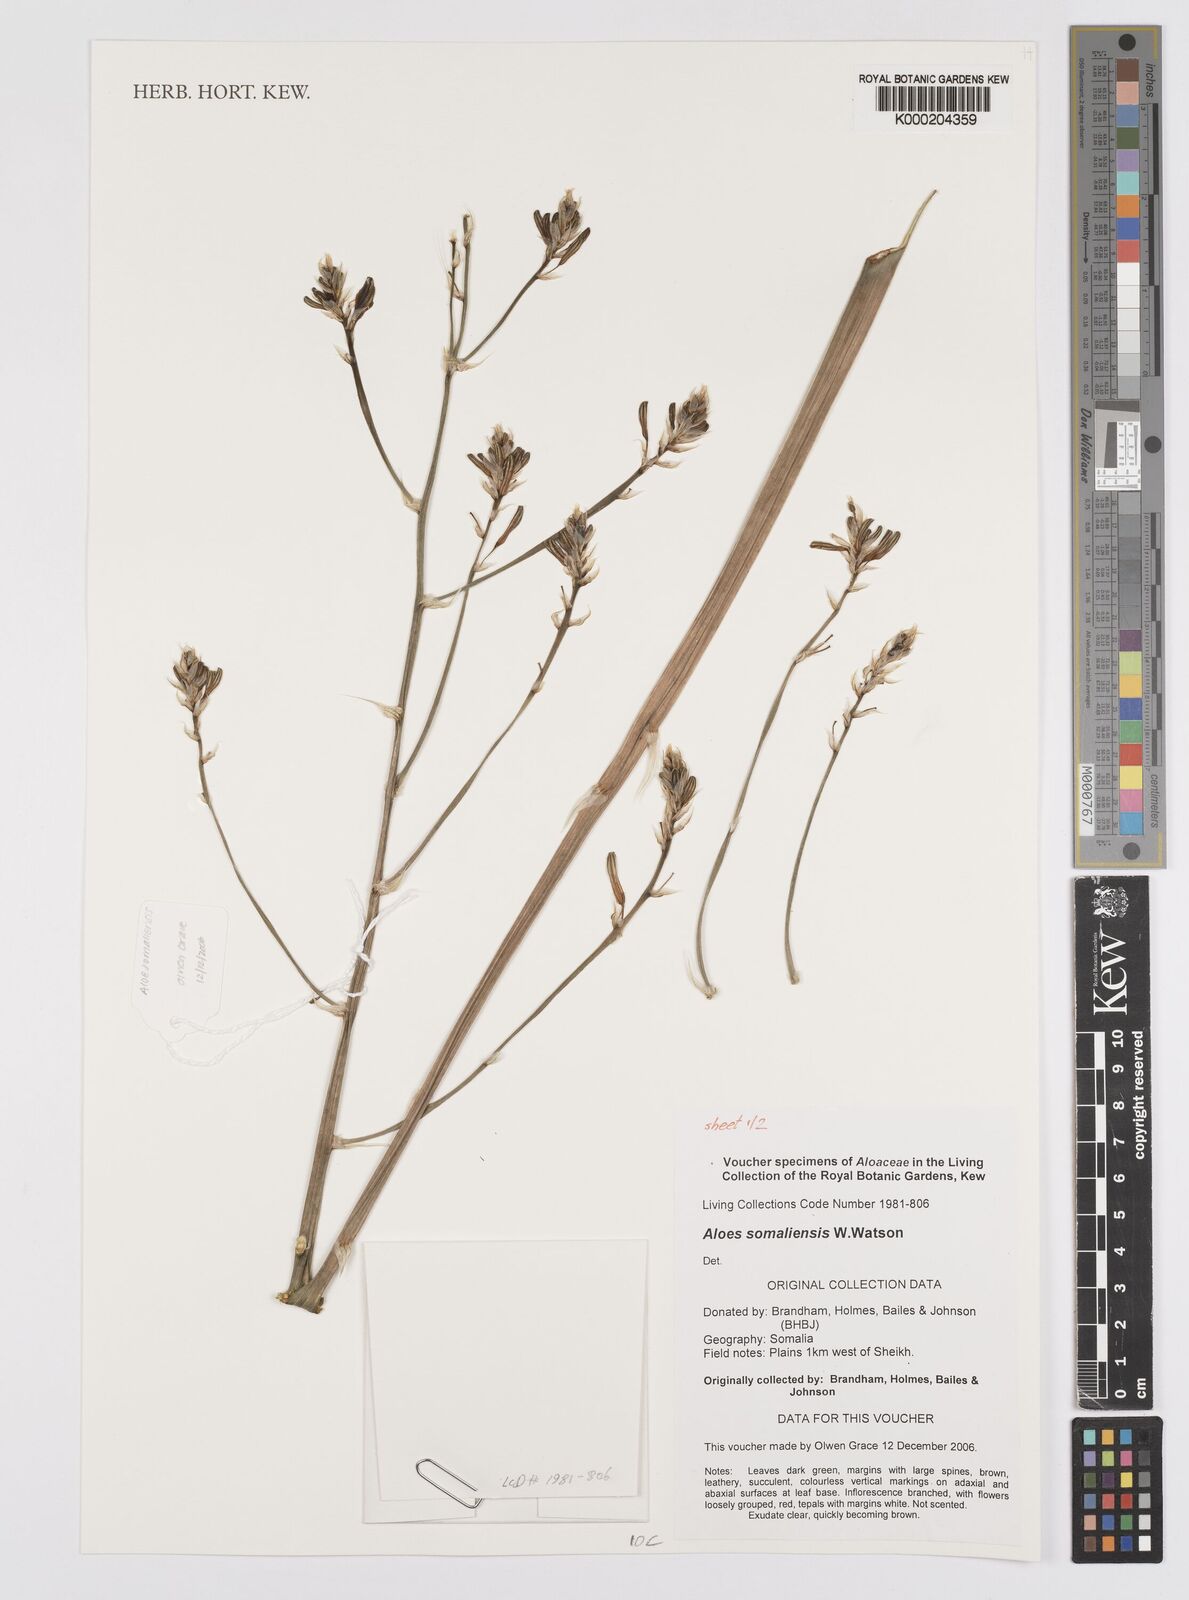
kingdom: Plantae
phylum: Tracheophyta
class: Liliopsida
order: Asparagales
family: Asphodelaceae
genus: Aloe
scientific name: Aloe somaliensis
